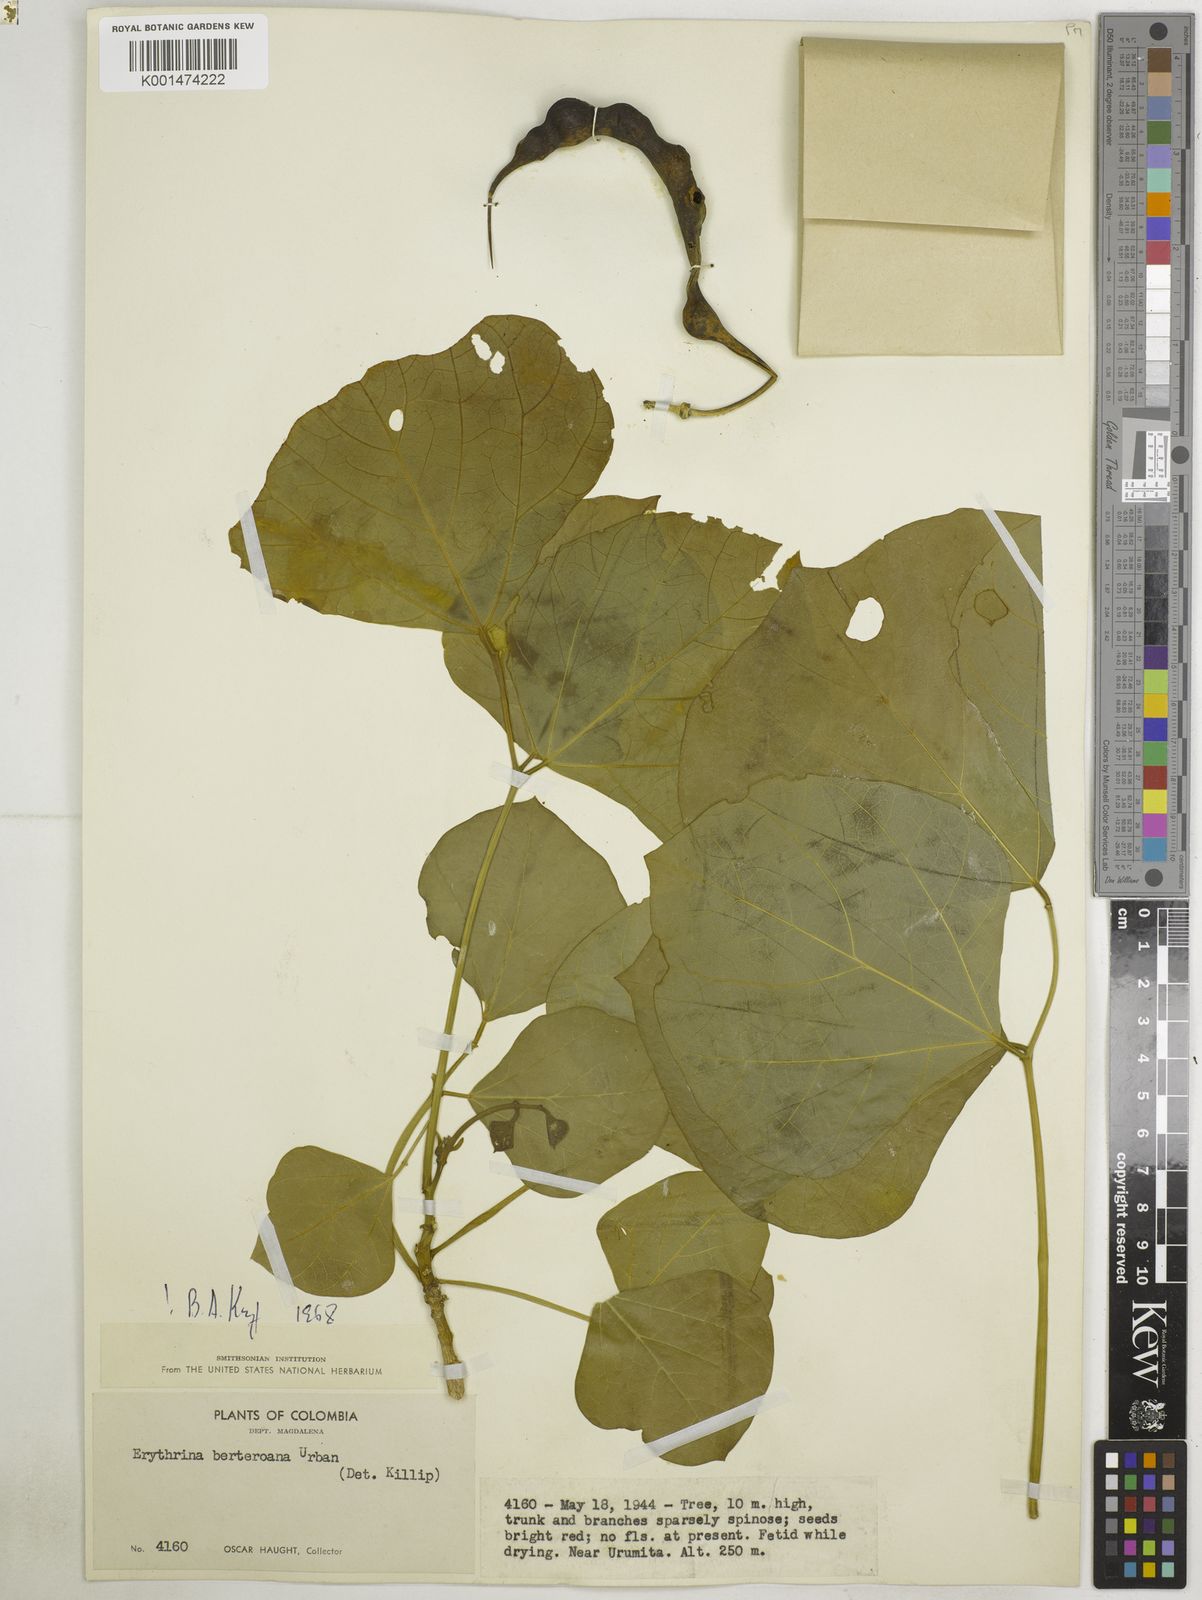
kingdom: Plantae
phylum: Tracheophyta
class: Magnoliopsida
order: Fabales
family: Fabaceae
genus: Erythrina
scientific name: Erythrina berteroana
